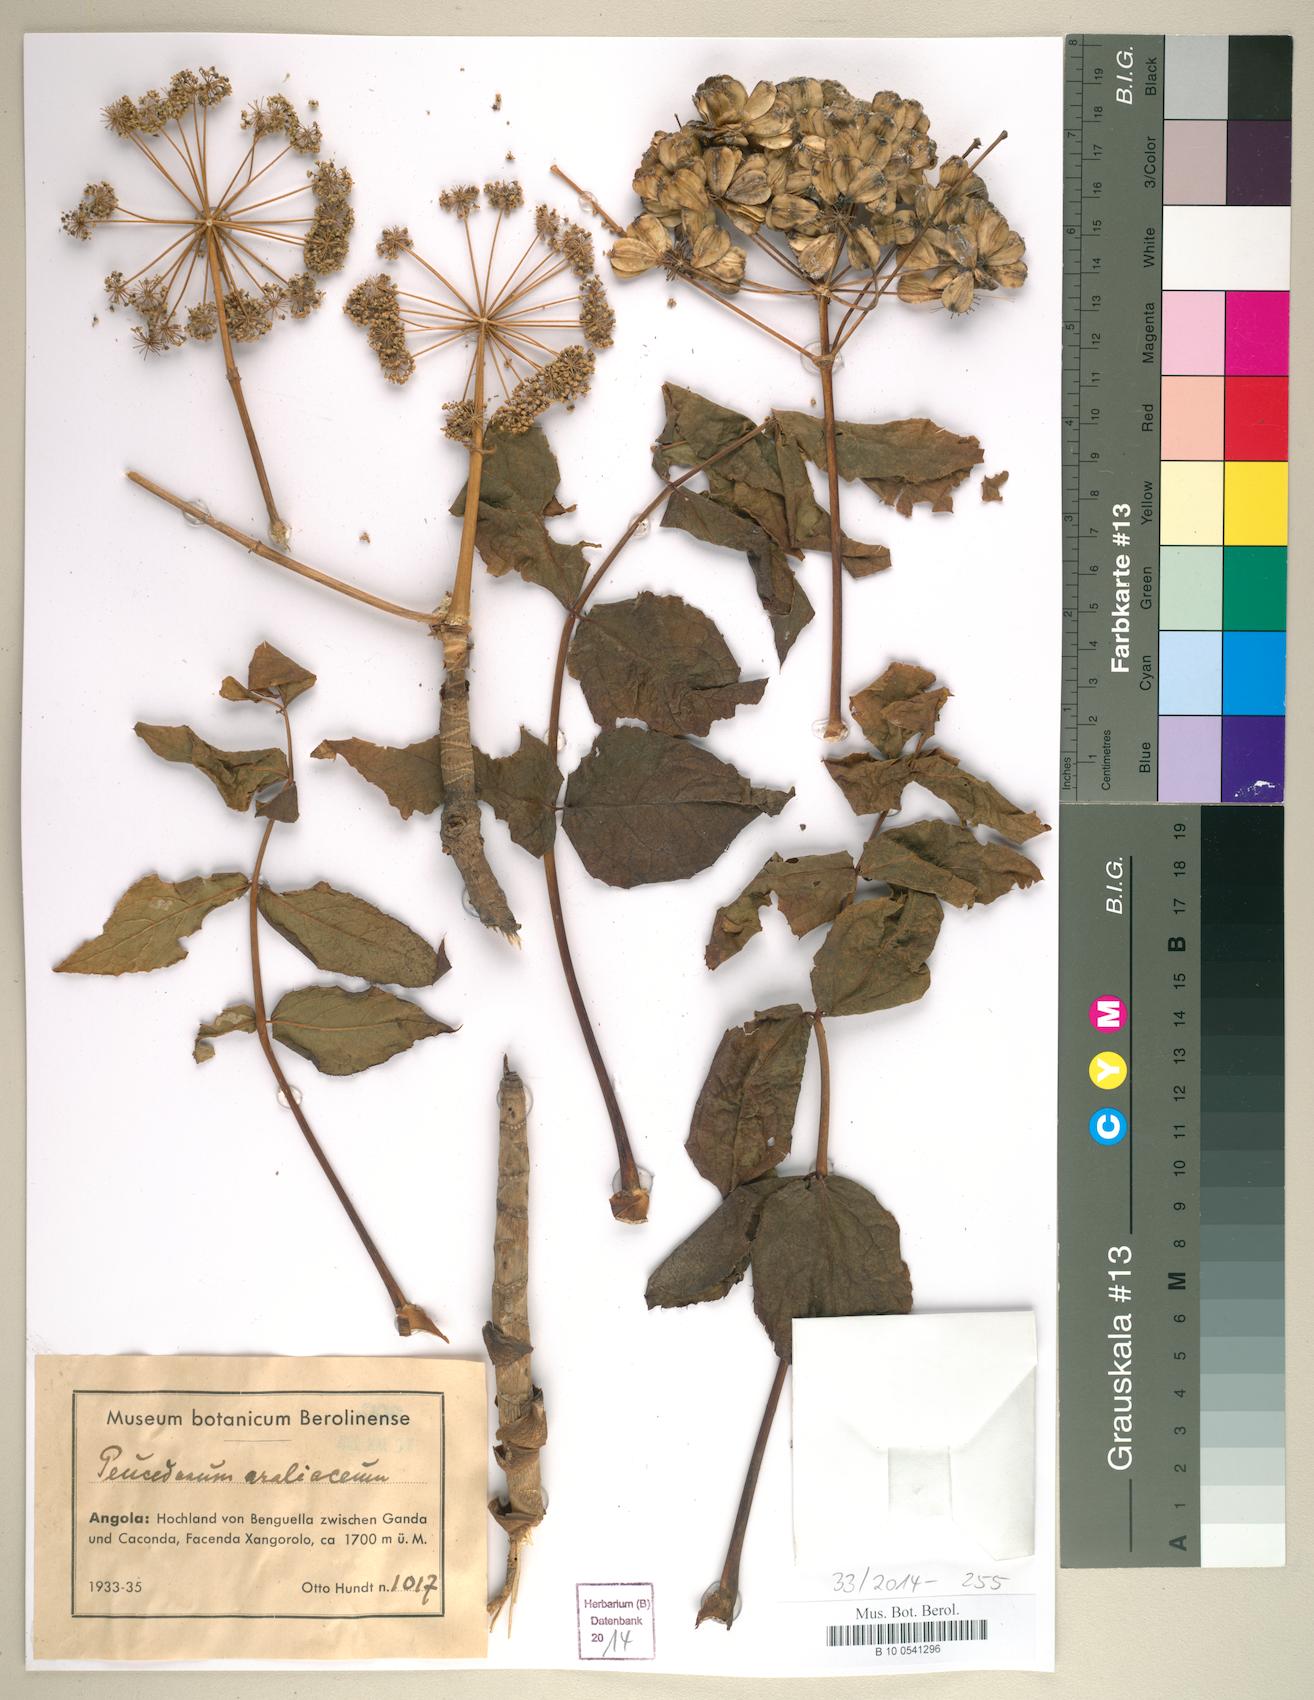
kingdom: Plantae
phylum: Tracheophyta
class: Magnoliopsida
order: Apiales
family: Apiaceae
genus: Steganotaenia
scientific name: Steganotaenia araliacea
